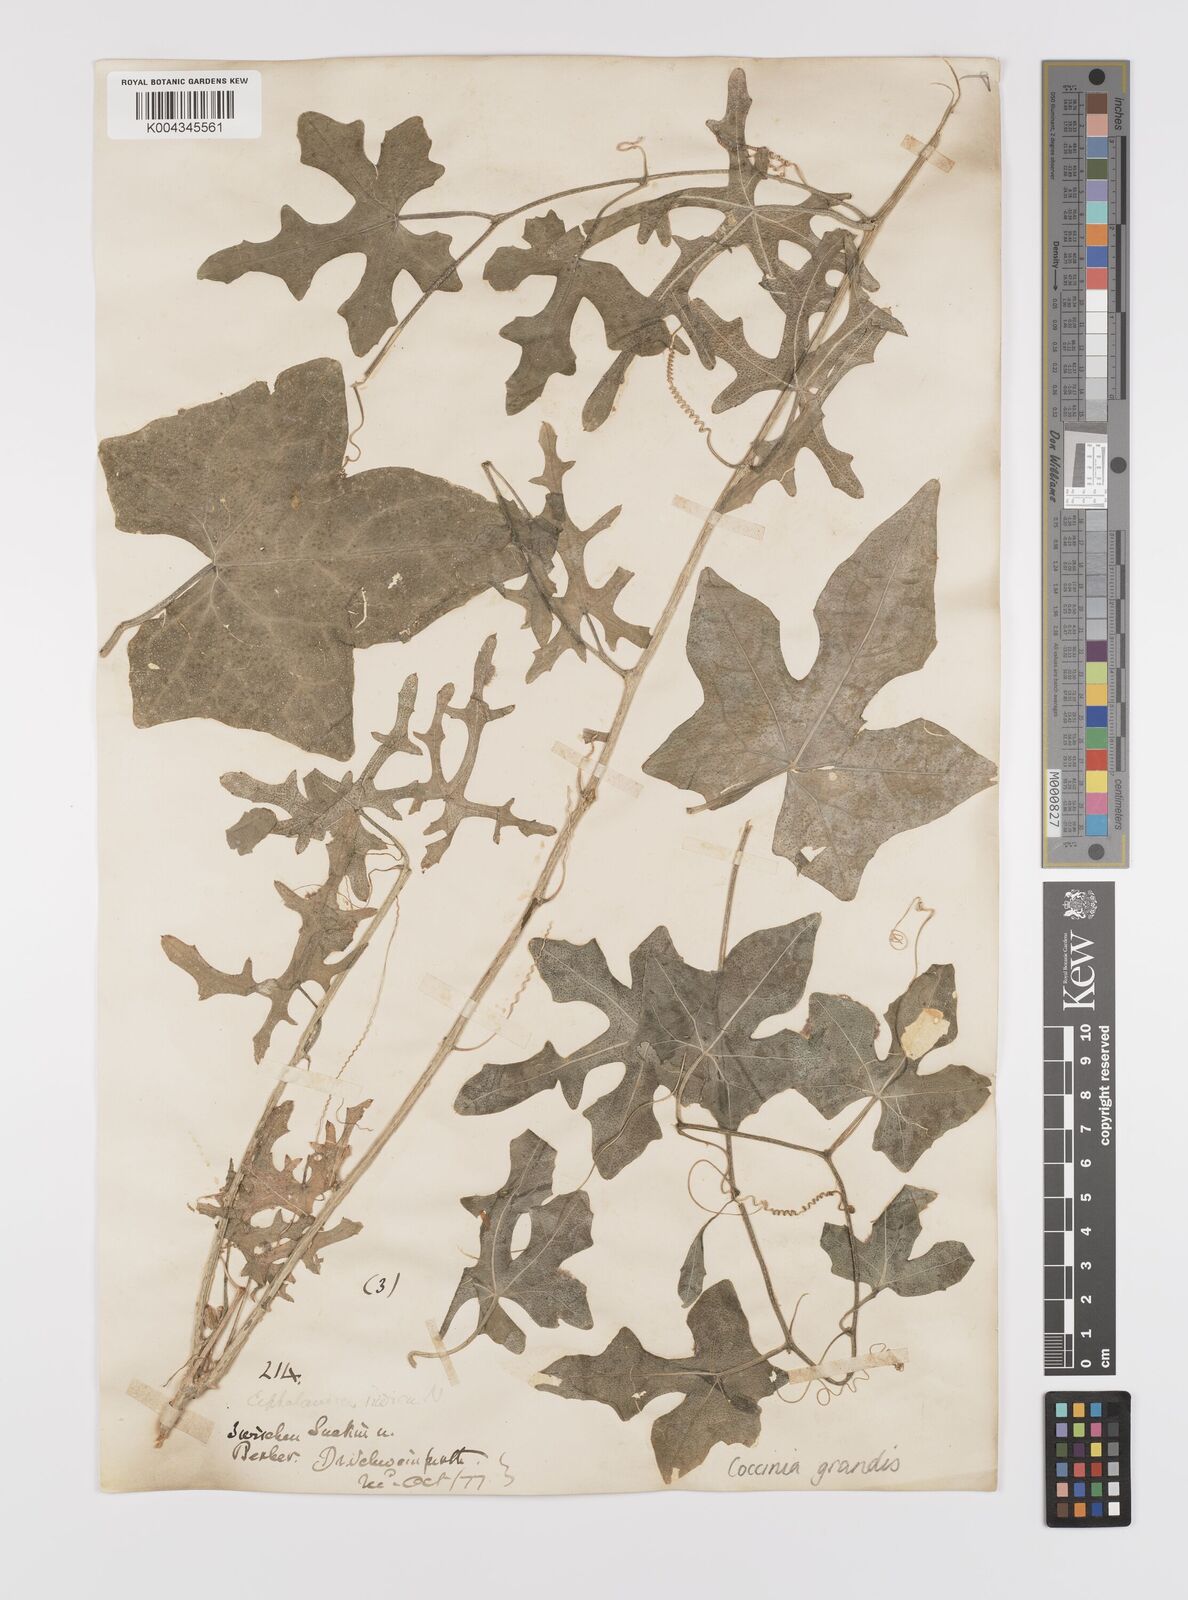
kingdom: Plantae
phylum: Tracheophyta
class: Magnoliopsida
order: Cucurbitales
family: Cucurbitaceae
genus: Coccinia
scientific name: Coccinia grandis
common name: Ivy gourd
